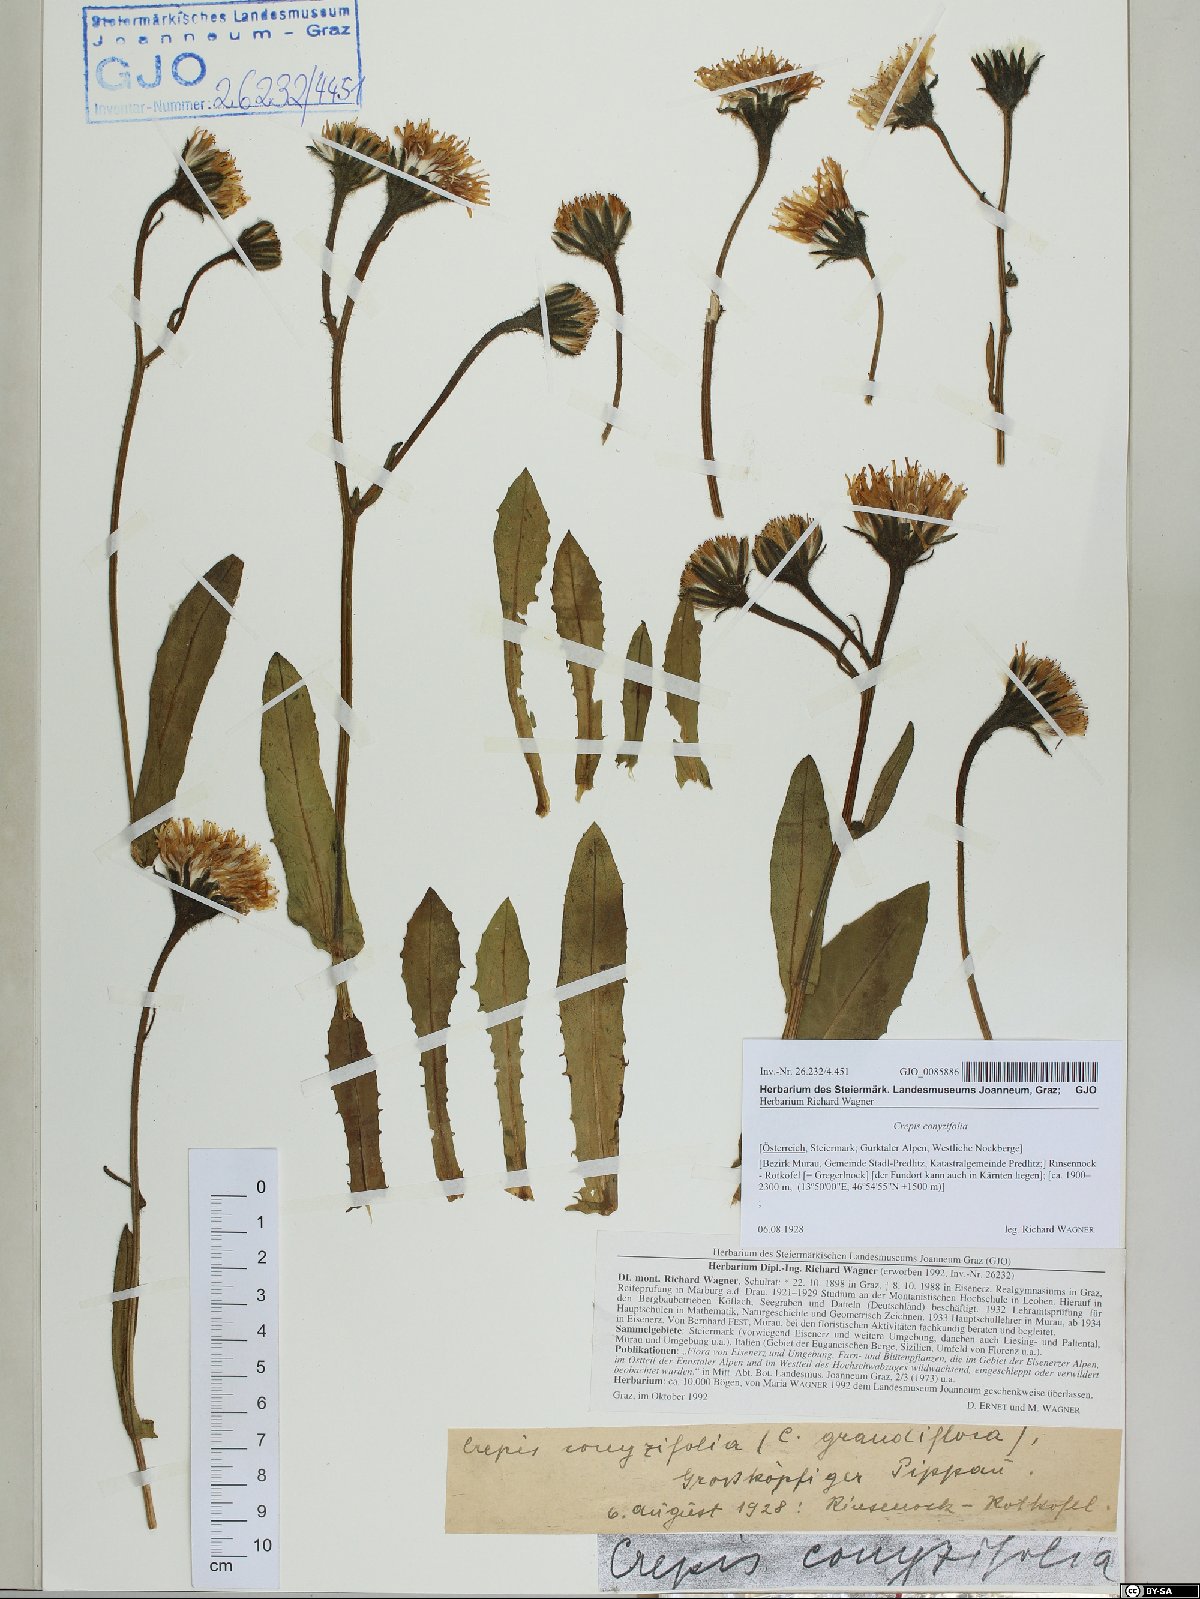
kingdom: Plantae
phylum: Tracheophyta
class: Magnoliopsida
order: Asterales
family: Asteraceae
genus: Crepis
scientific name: Crepis blattarioides
